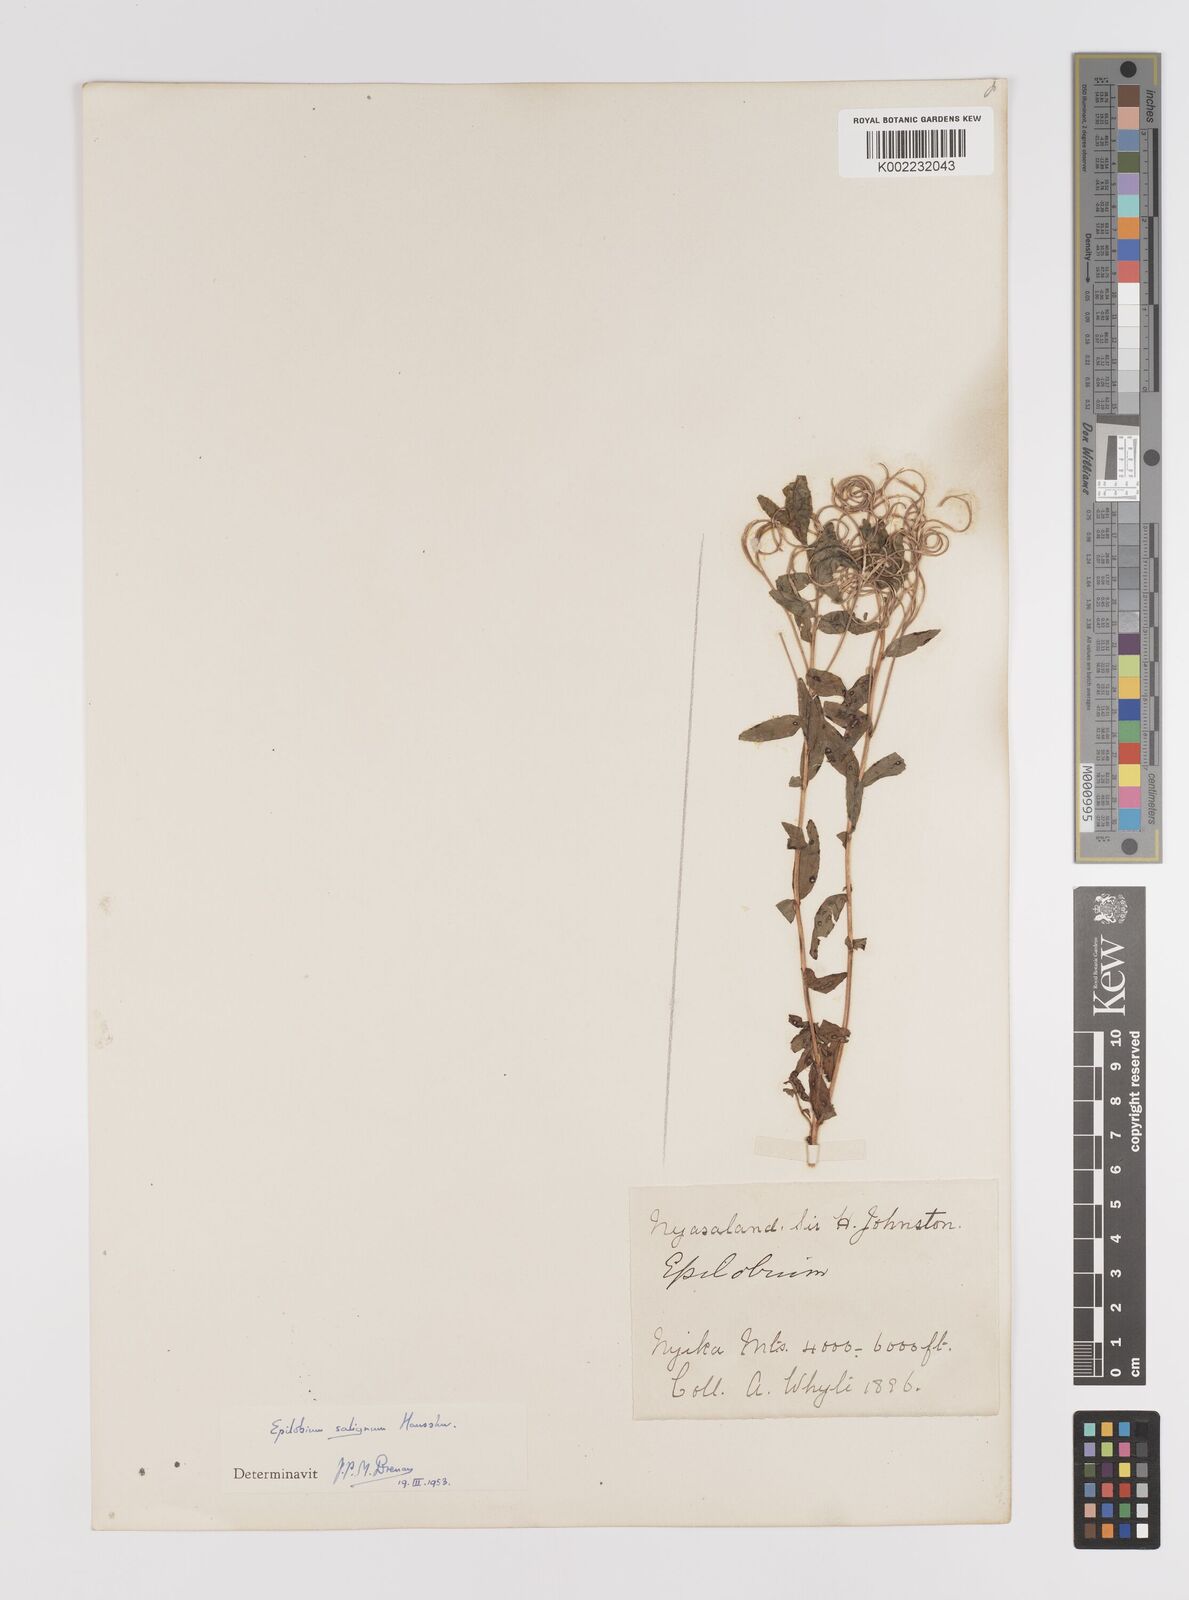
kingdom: Plantae
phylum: Tracheophyta
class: Magnoliopsida
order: Myrtales
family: Onagraceae
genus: Epilobium
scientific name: Epilobium salignum
